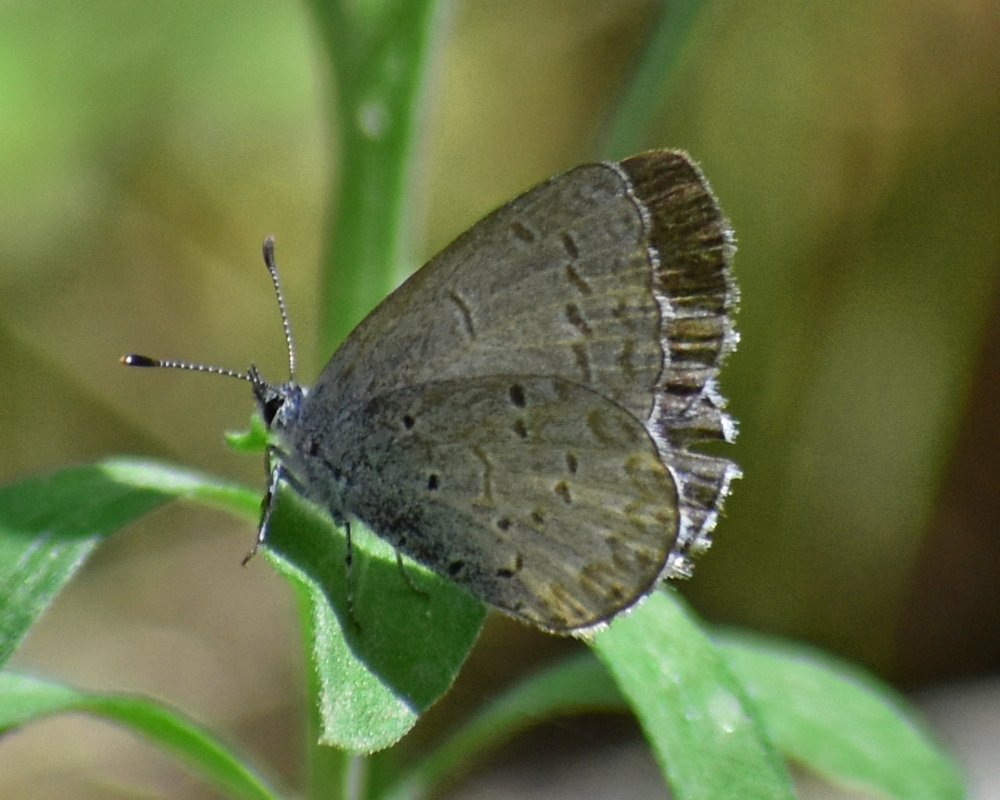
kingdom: Animalia
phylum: Arthropoda
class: Insecta
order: Lepidoptera
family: Lycaenidae
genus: Celastrina
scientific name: Celastrina ladon
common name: Echo Azure
